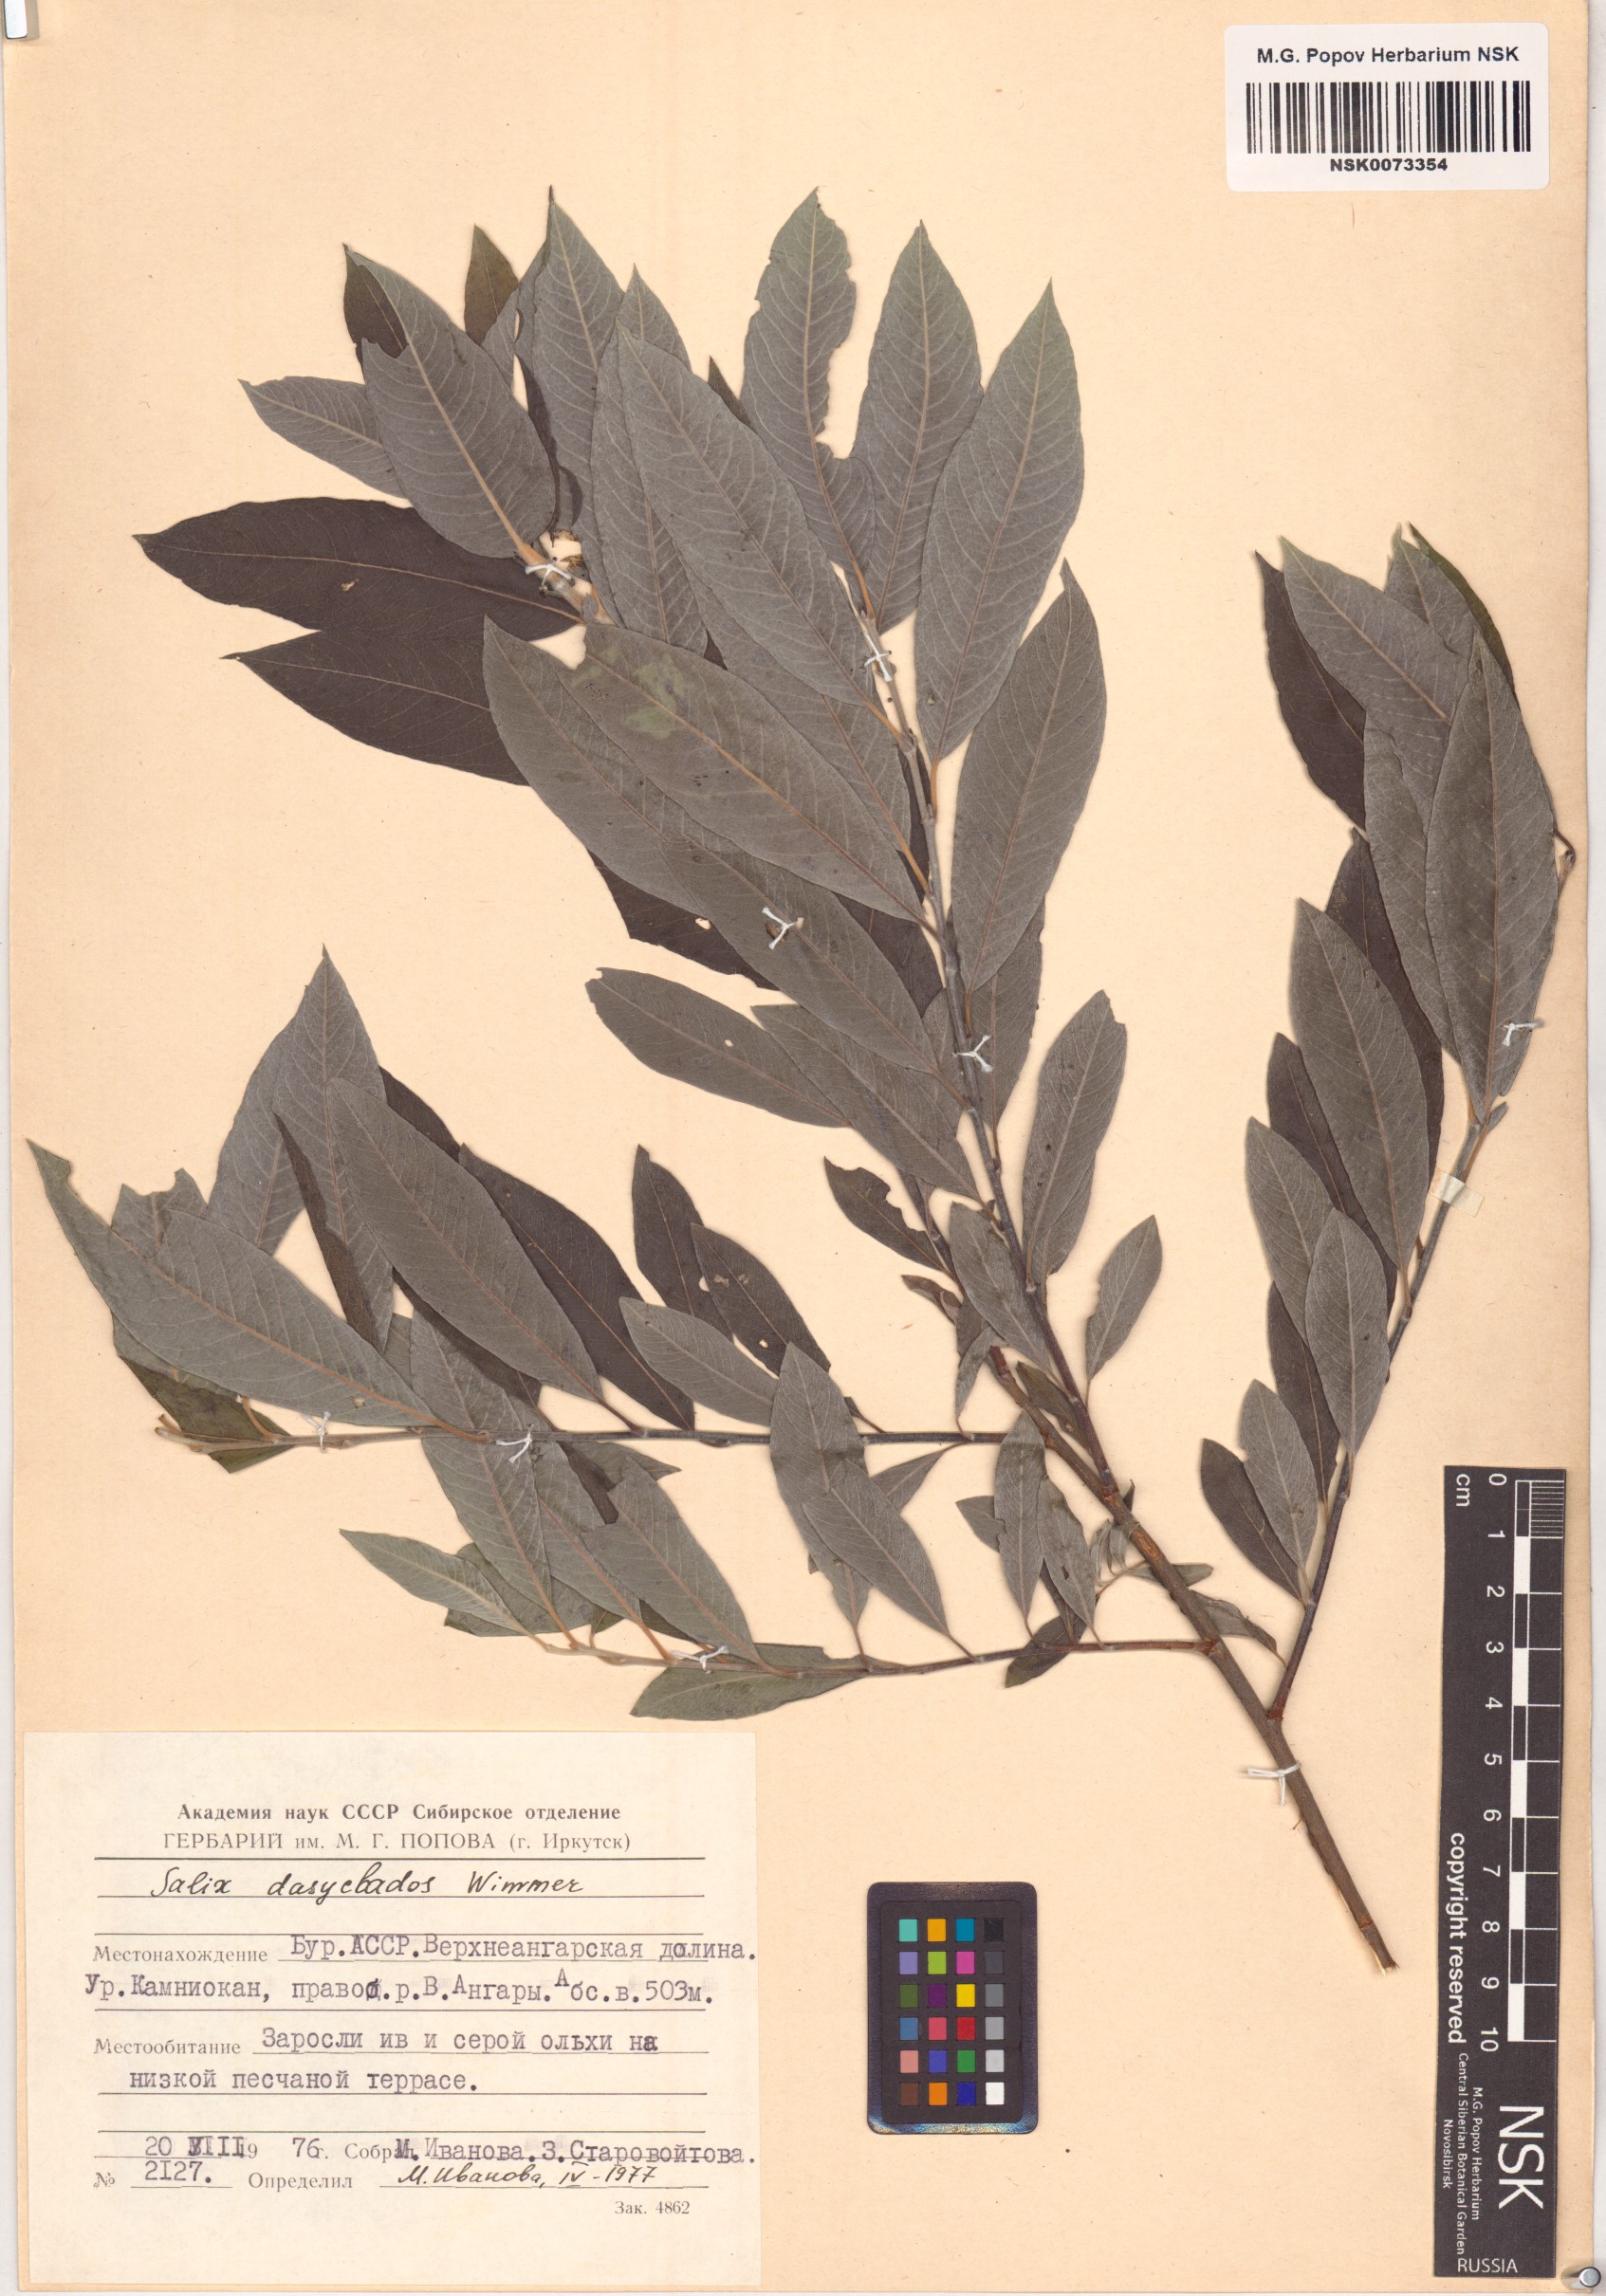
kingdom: Plantae
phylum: Tracheophyta
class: Magnoliopsida
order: Malpighiales
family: Salicaceae
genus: Salix
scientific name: Salix gmelinii
